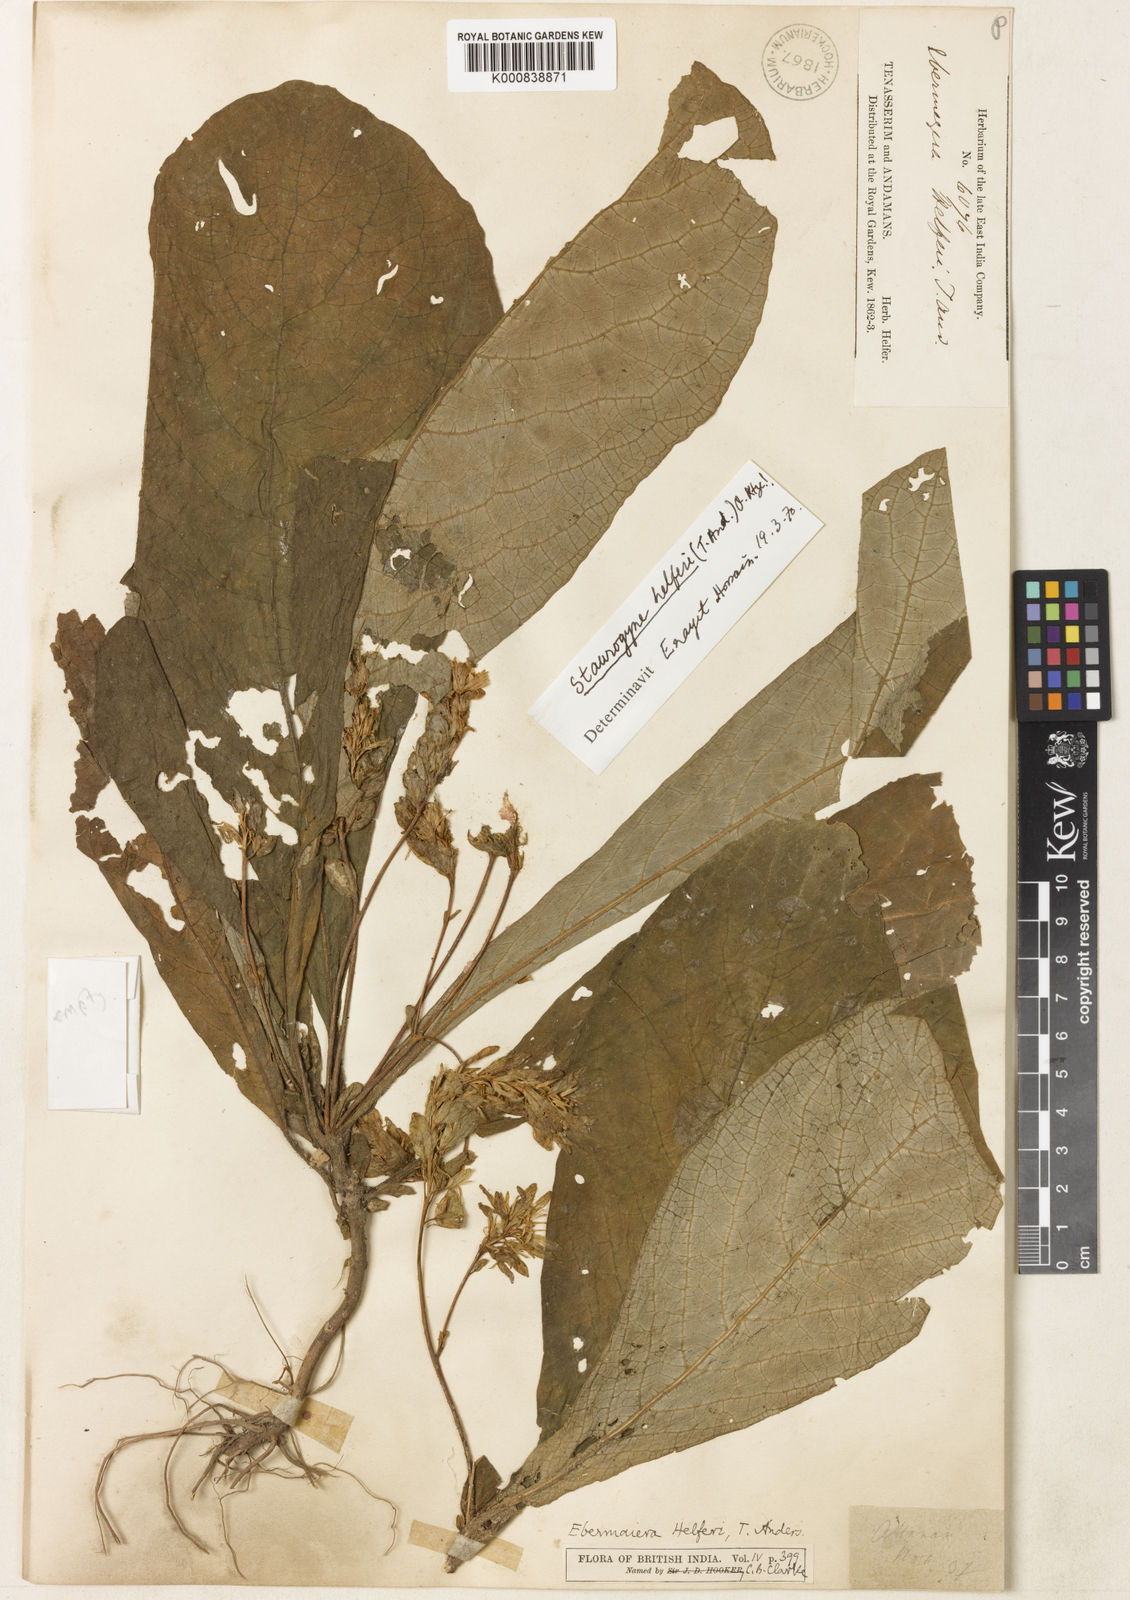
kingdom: Plantae
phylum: Tracheophyta
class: Magnoliopsida
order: Lamiales
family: Acanthaceae
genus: Staurogyne
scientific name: Staurogyne helferi
